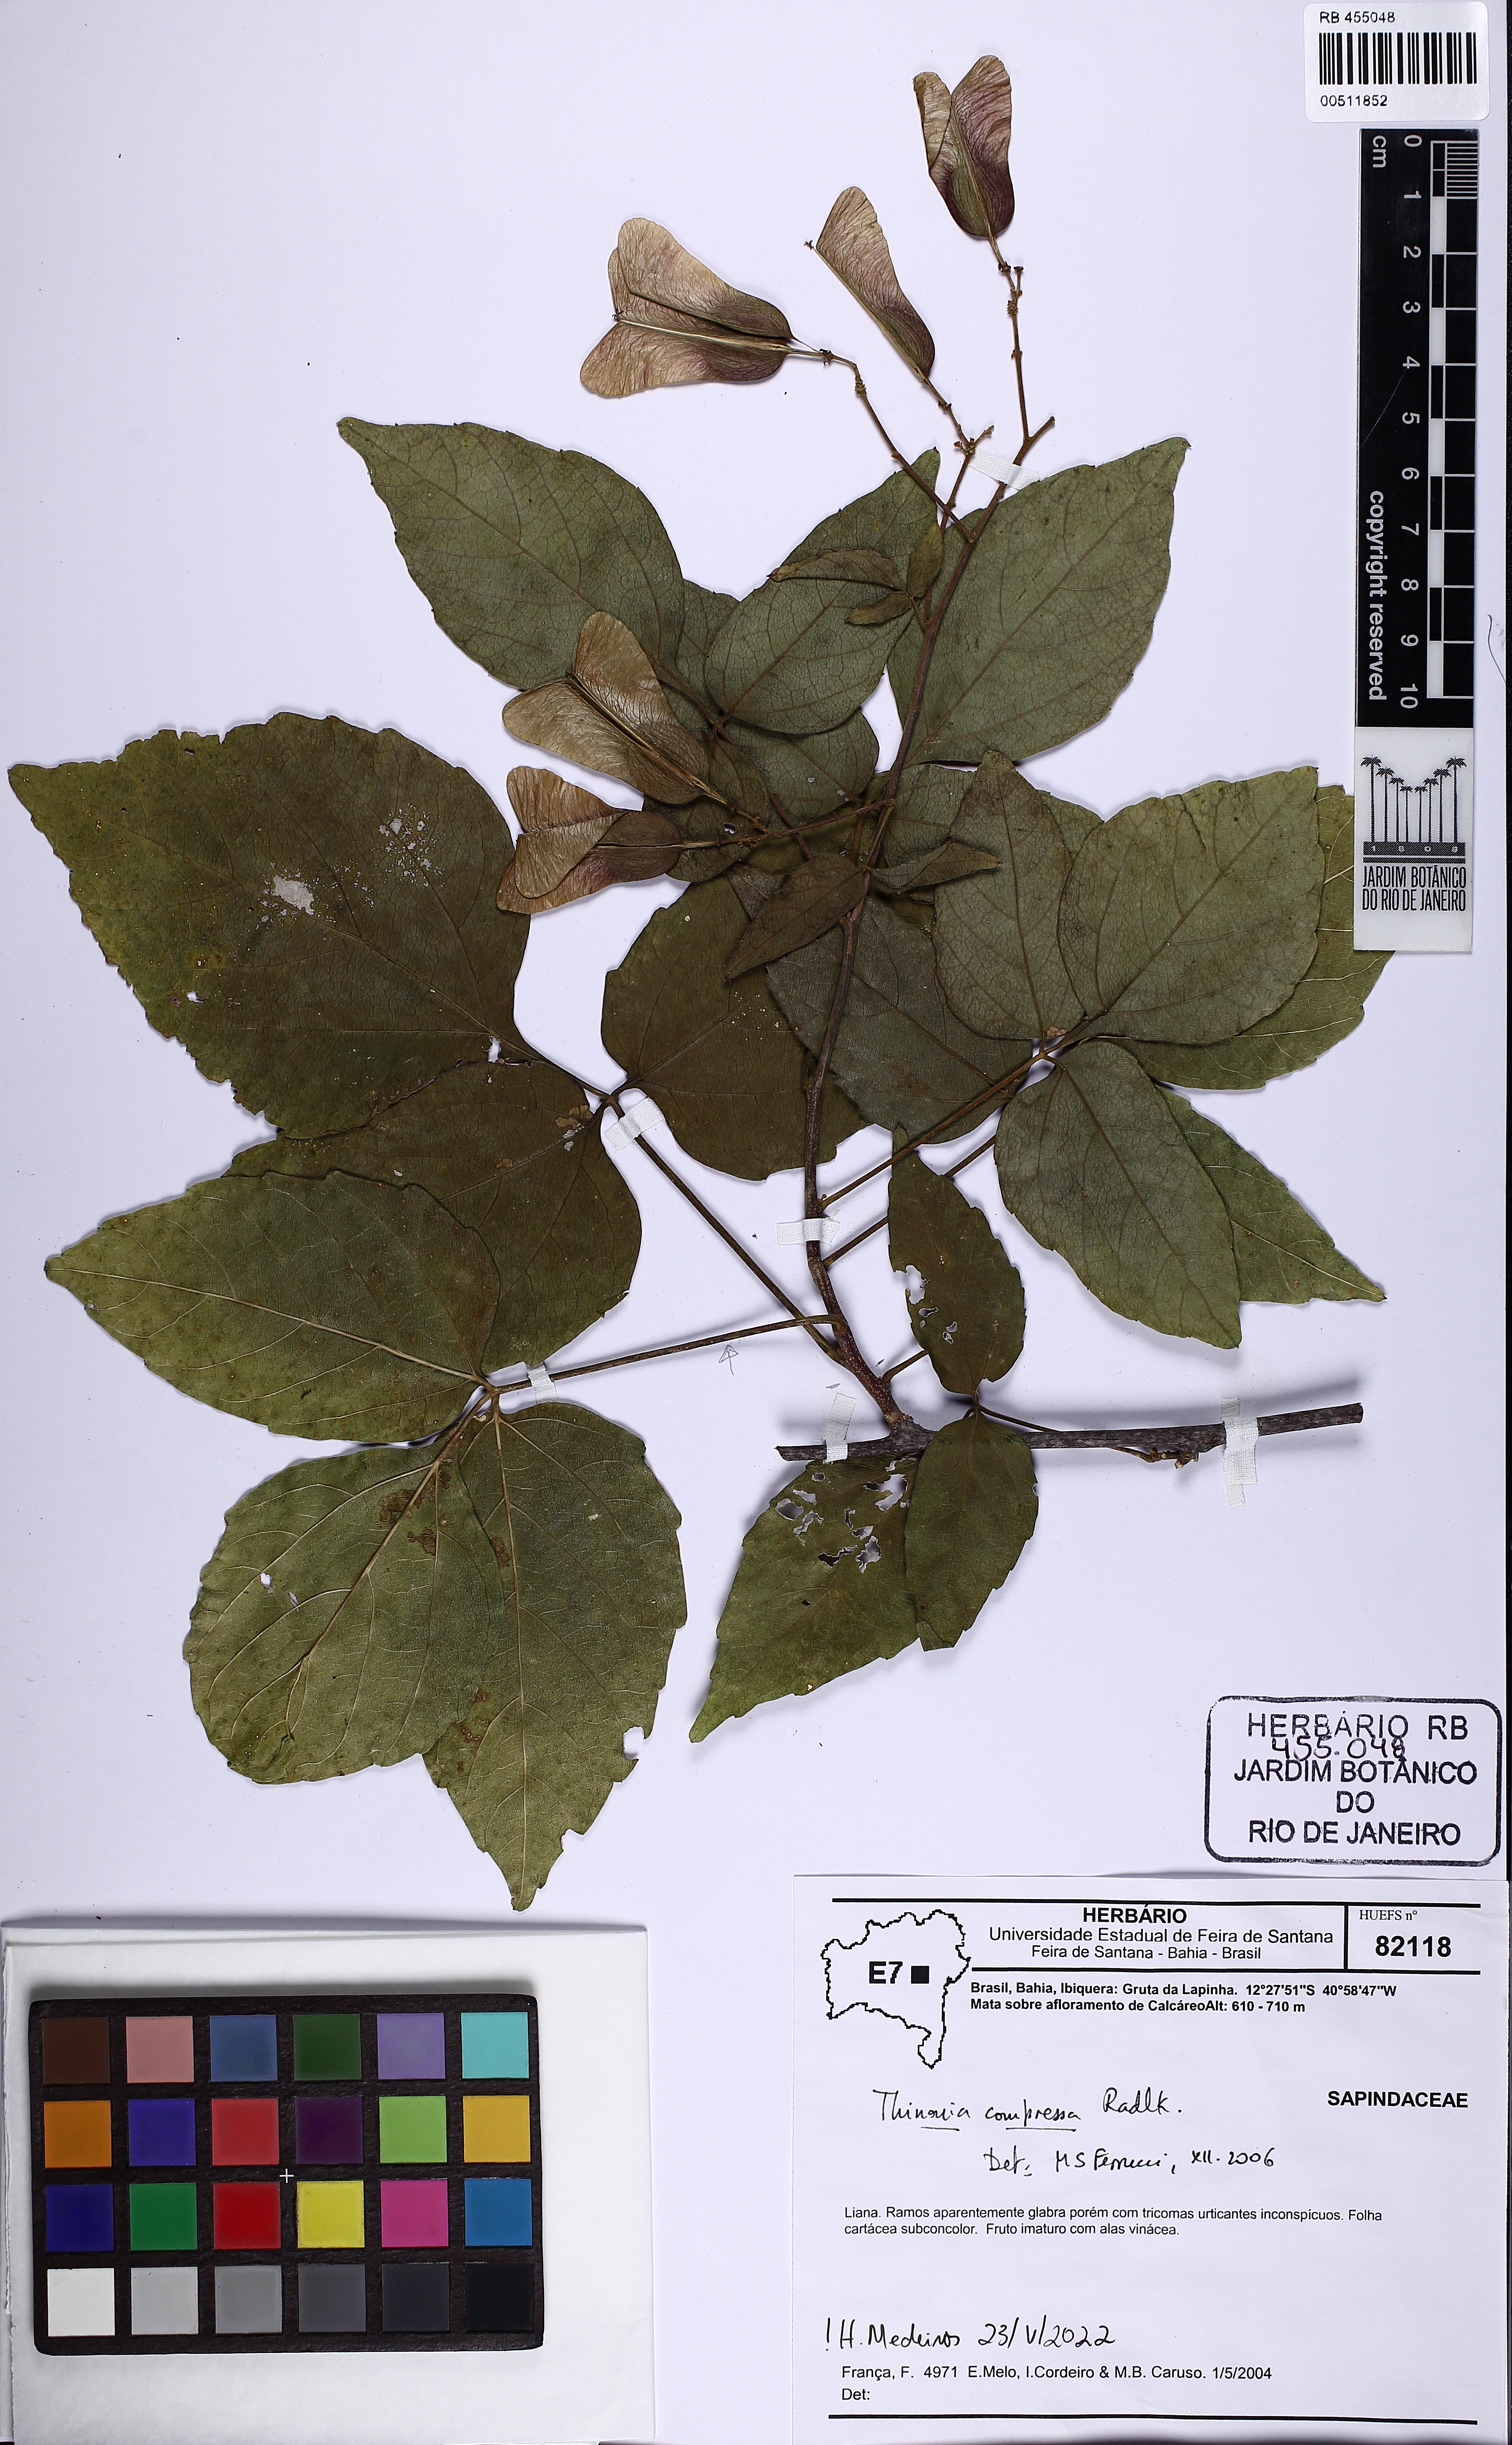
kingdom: Plantae
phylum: Tracheophyta
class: Magnoliopsida
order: Sapindales
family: Sapindaceae
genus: Thinouia
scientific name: Thinouia compressa
